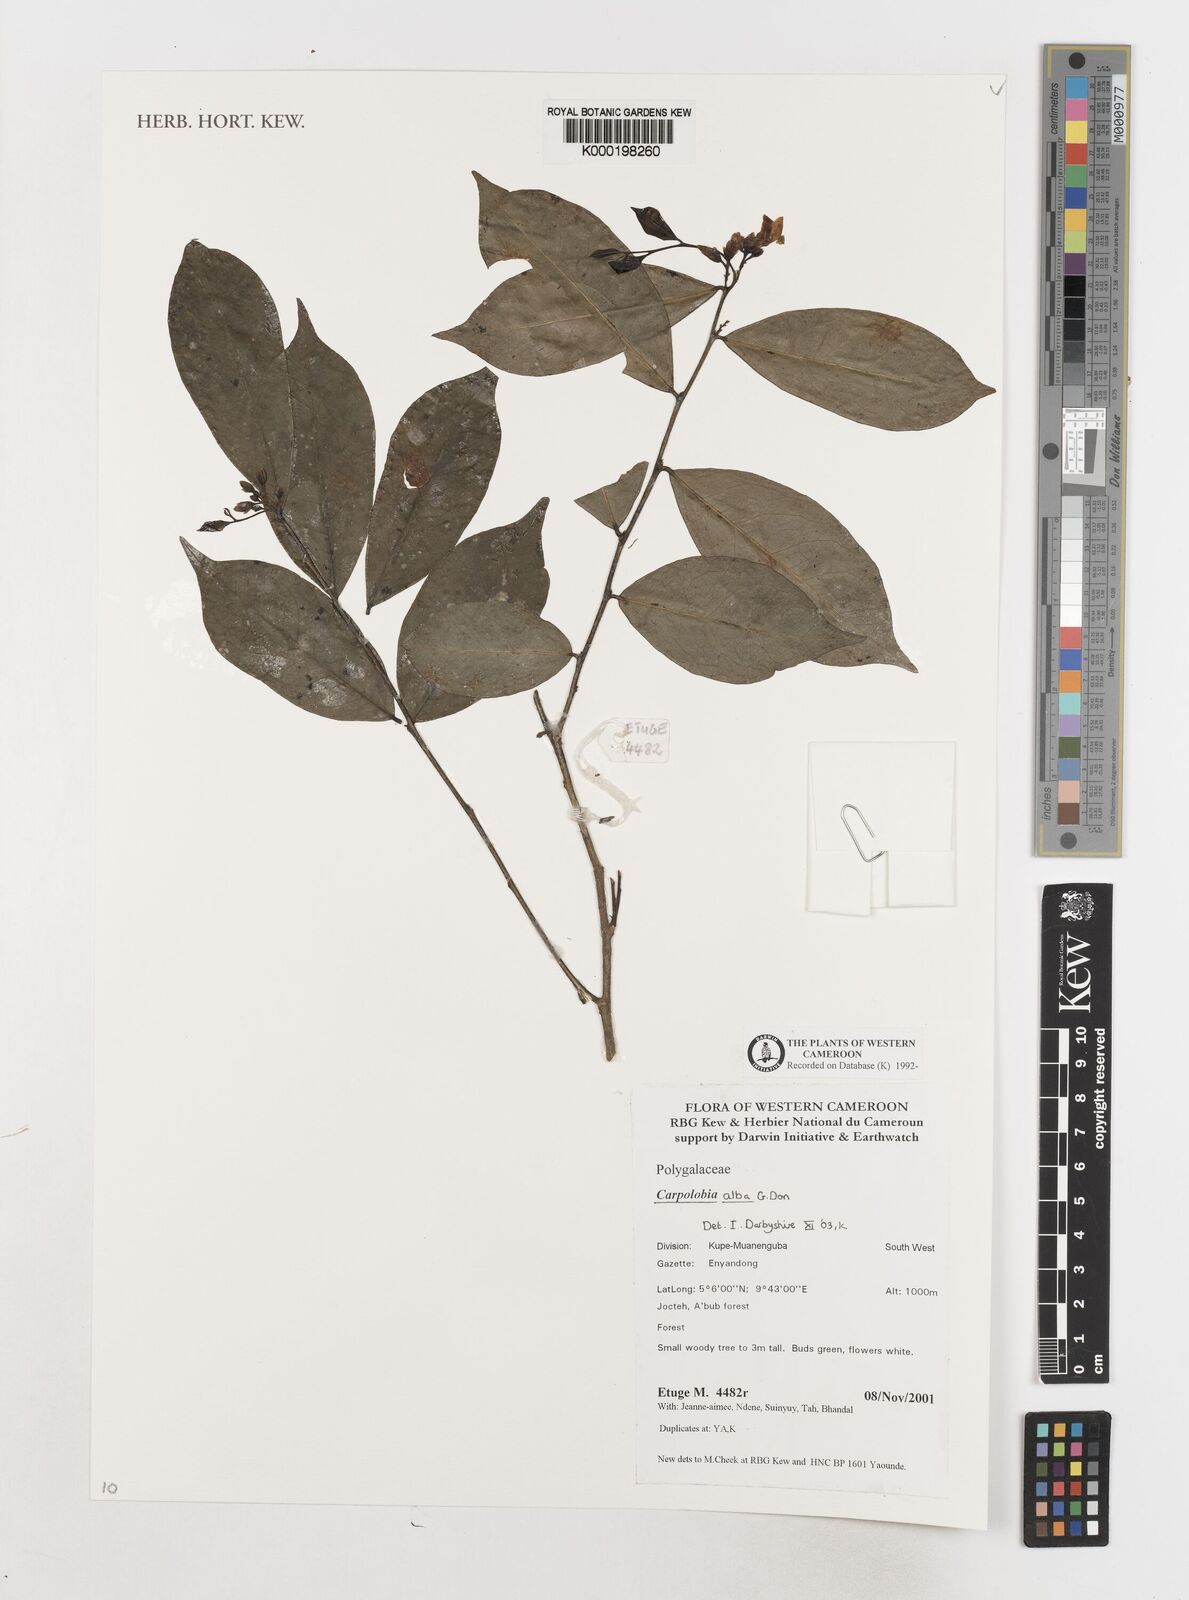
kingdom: Plantae
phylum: Tracheophyta
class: Magnoliopsida
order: Fabales
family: Polygalaceae
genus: Carpolobia
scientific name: Carpolobia alba
